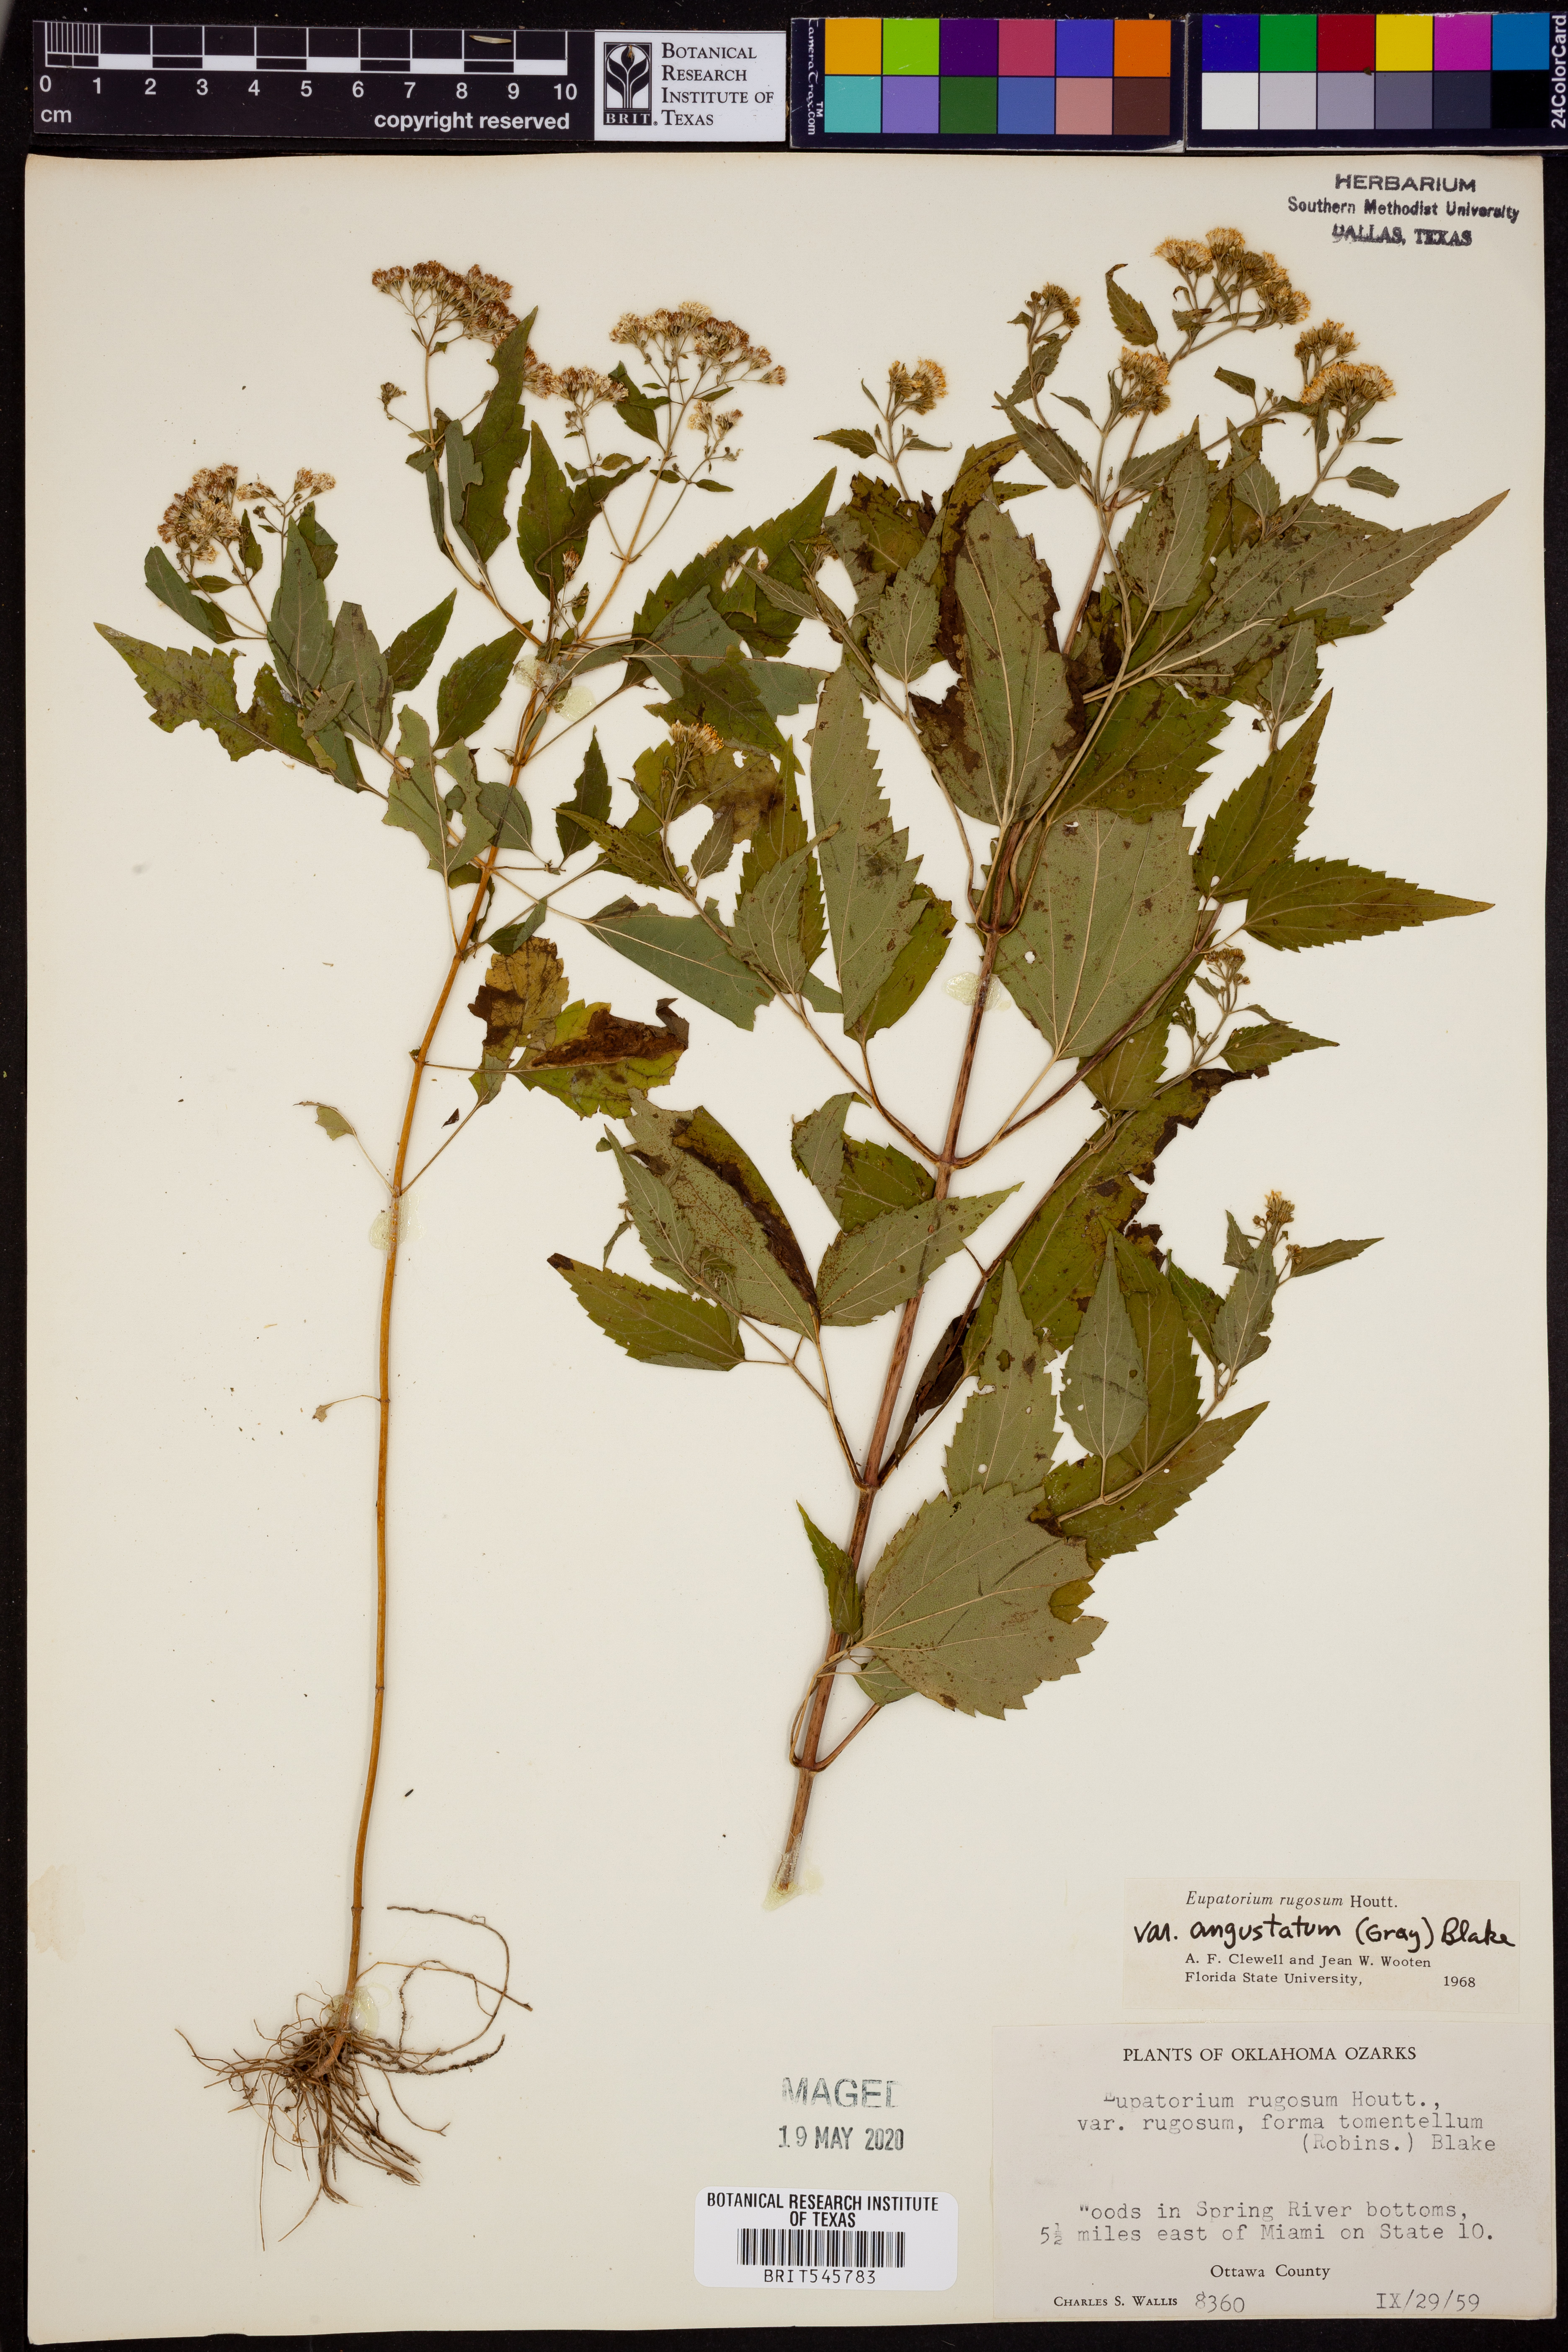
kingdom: Plantae
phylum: Tracheophyta
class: Magnoliopsida
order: Asterales
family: Asteraceae
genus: Ageratina
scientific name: Ageratina altissima
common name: White snakeroot
